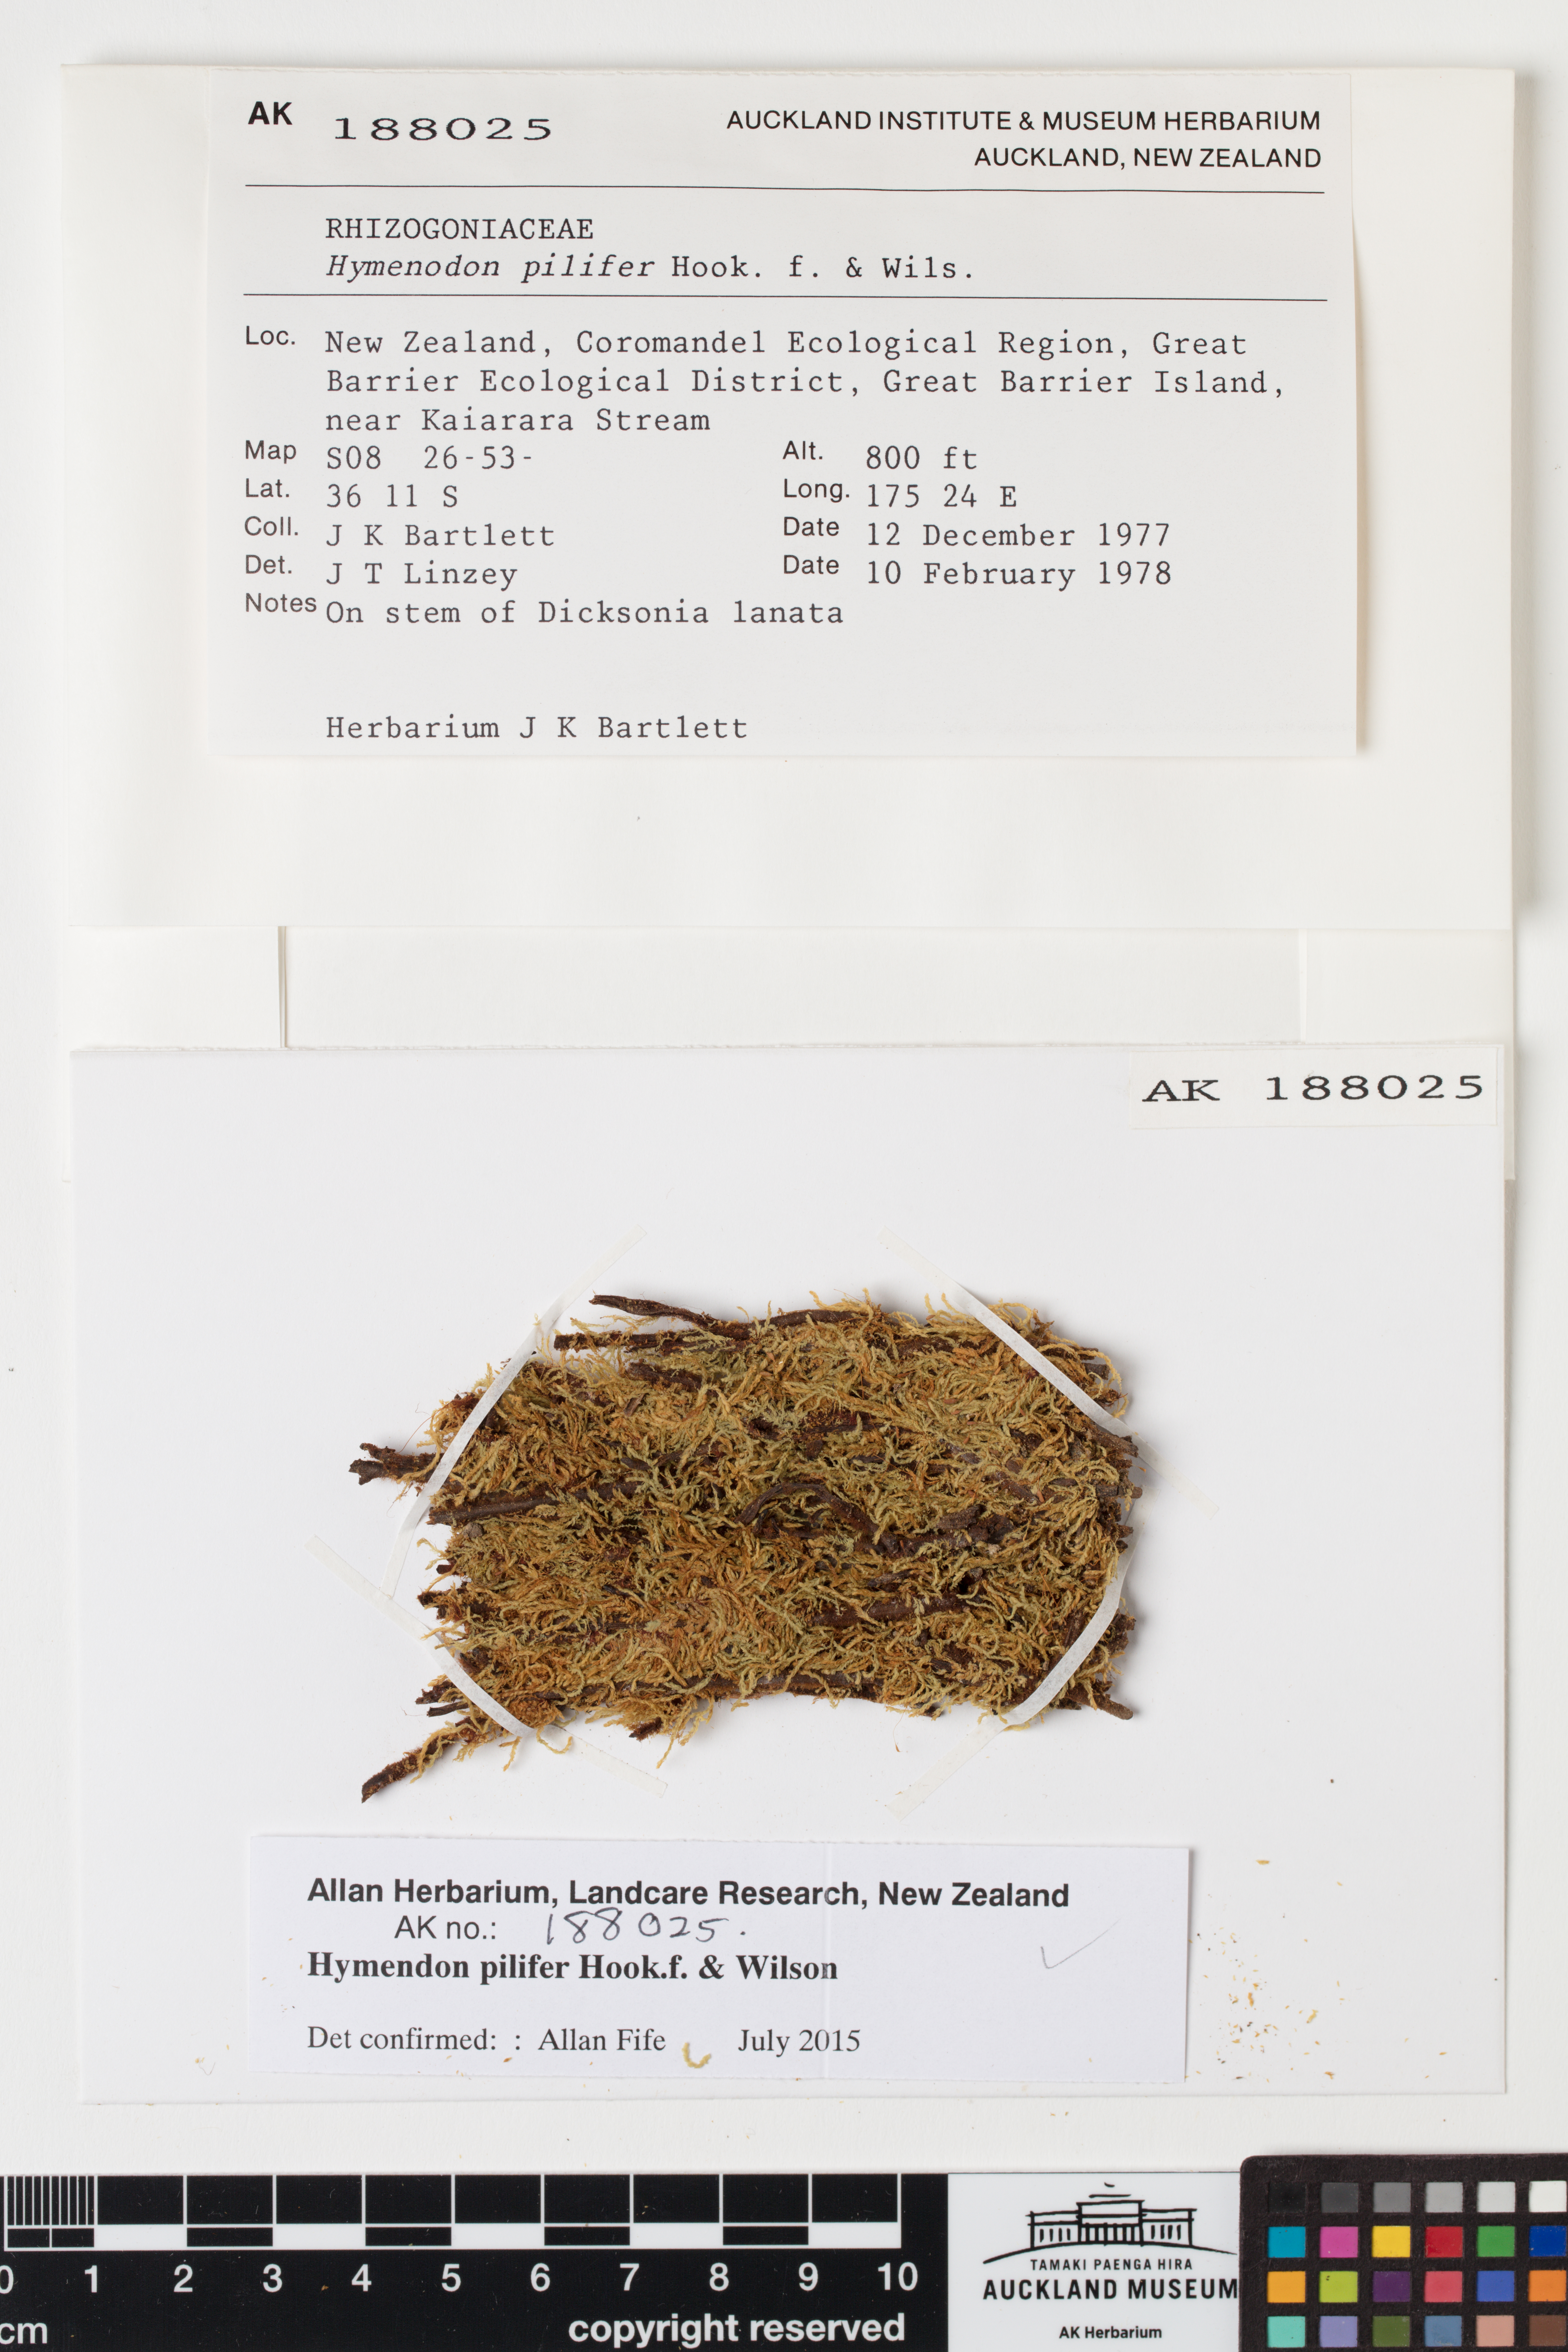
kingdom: Plantae
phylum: Bryophyta
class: Bryopsida
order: Orthodontiales
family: Orthodontiaceae
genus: Hymenodon
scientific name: Hymenodon pilifer
